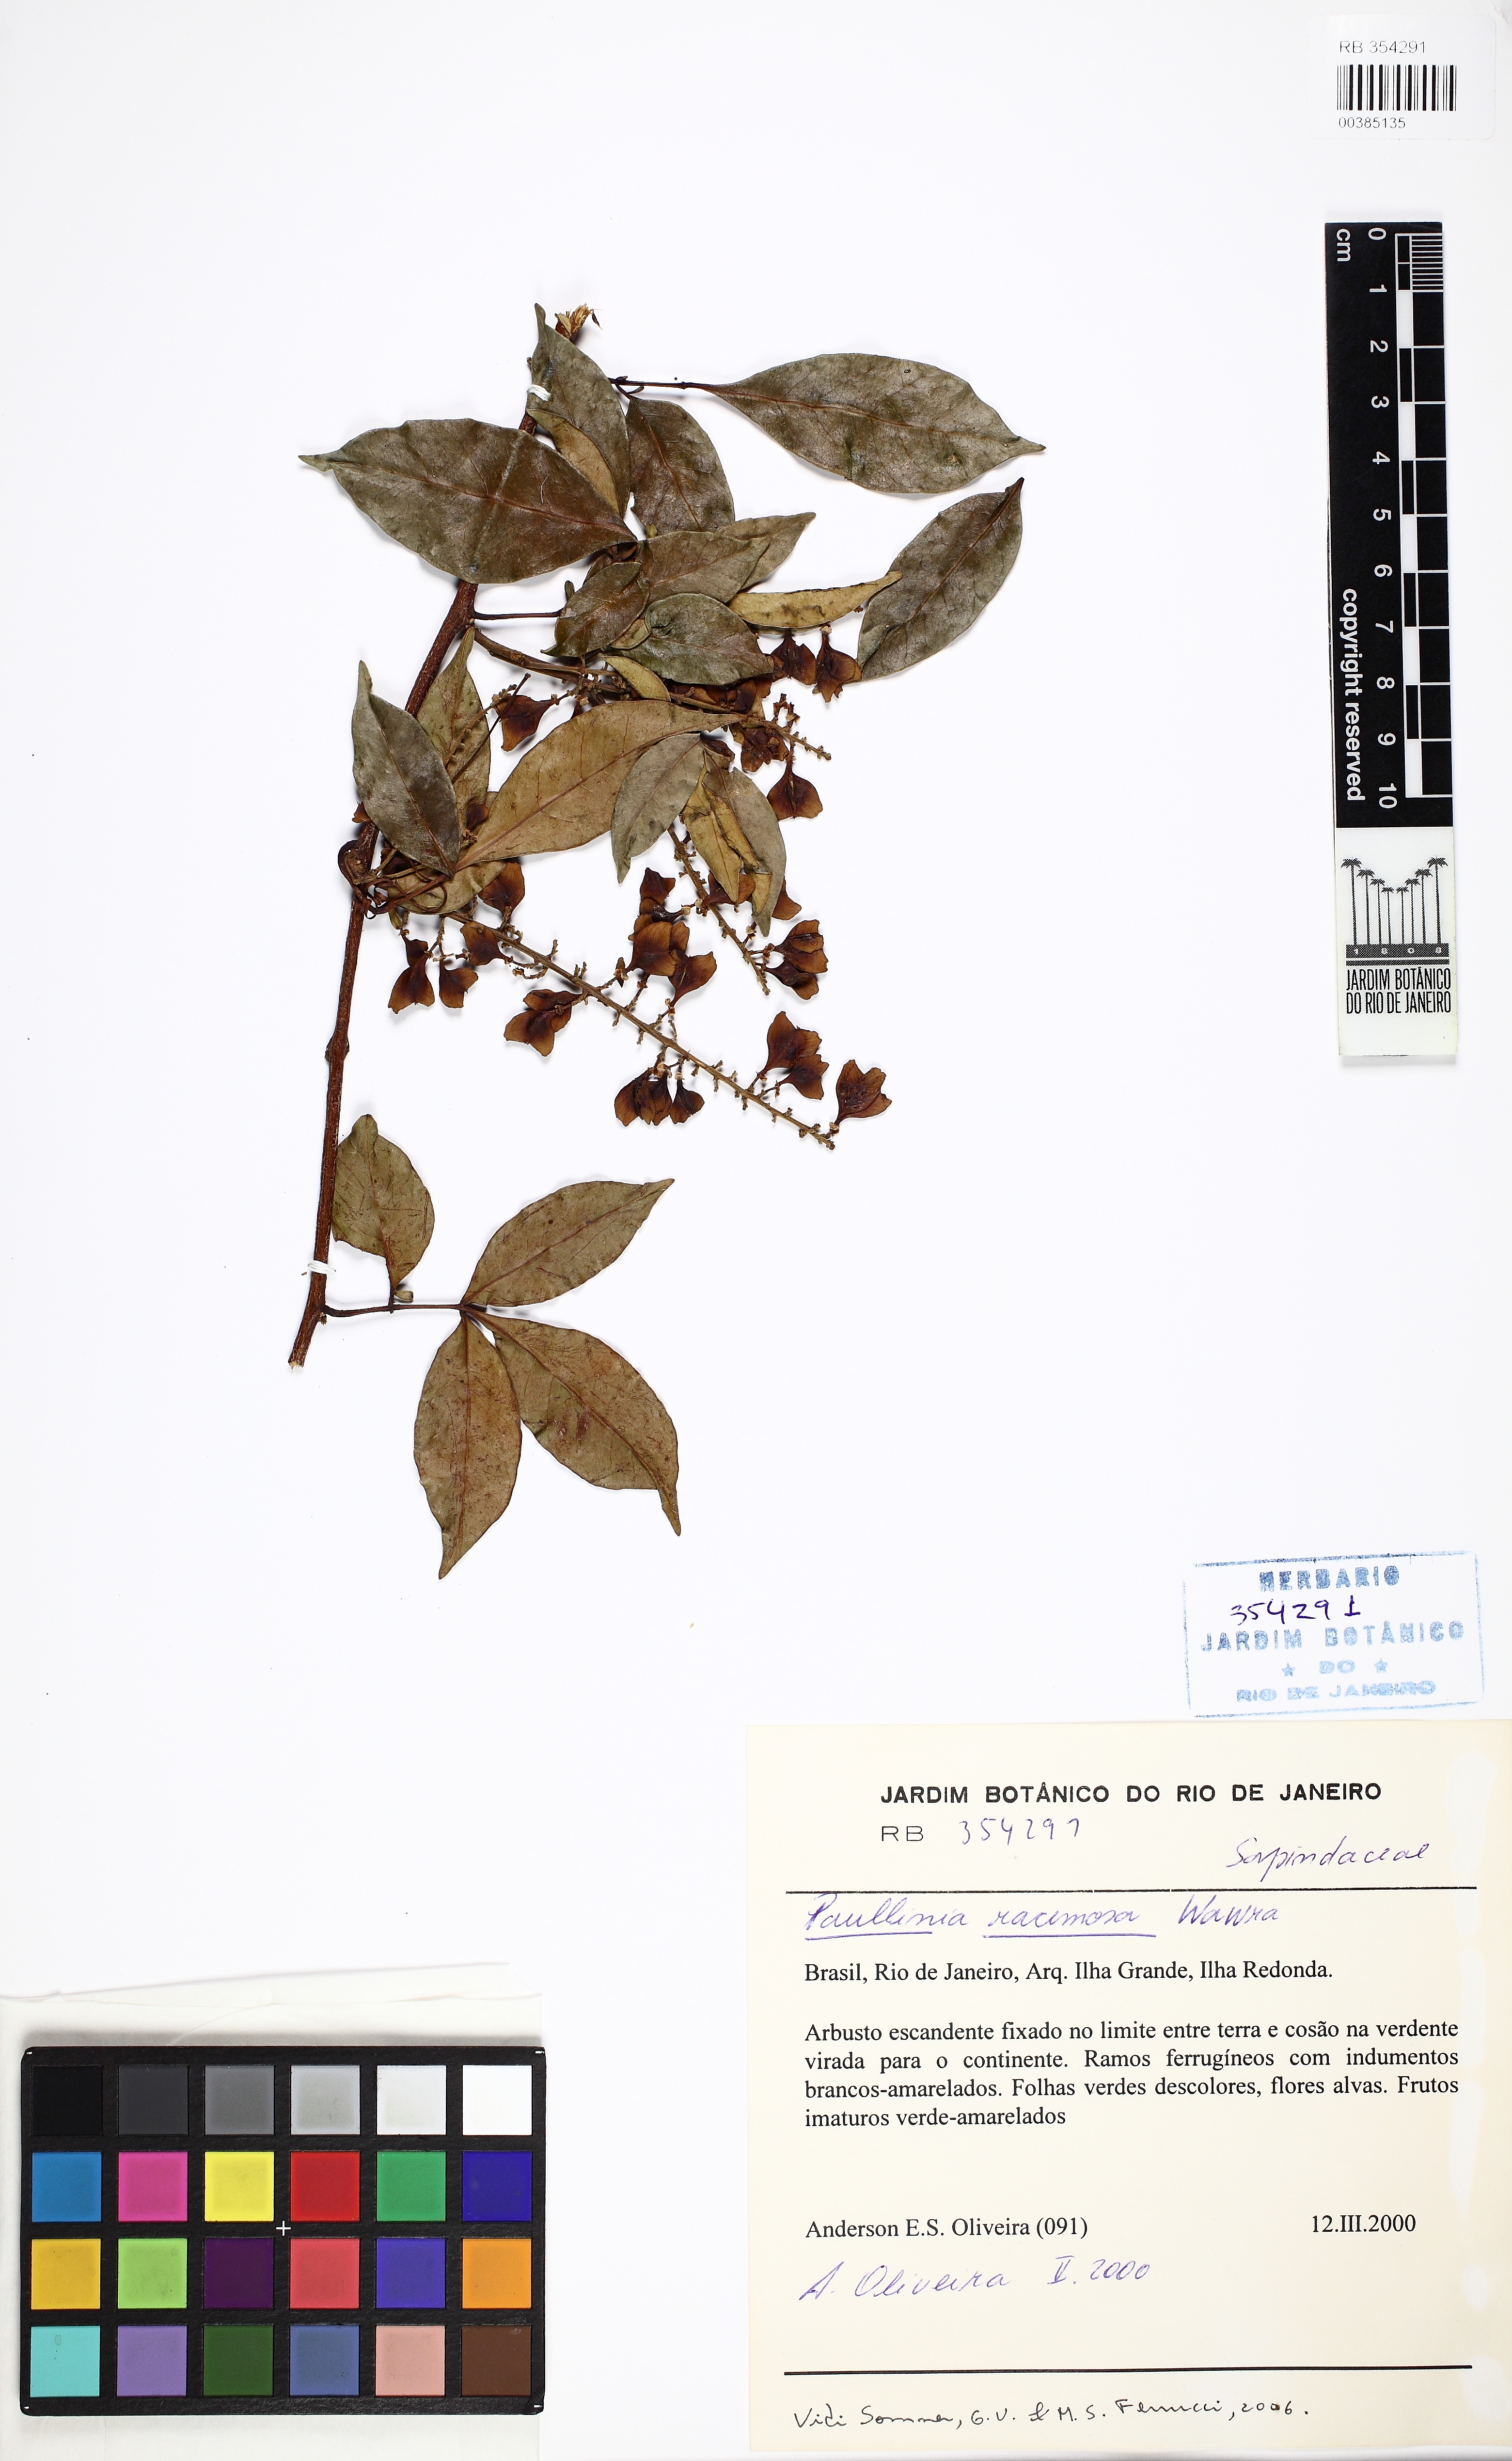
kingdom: Plantae
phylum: Tracheophyta
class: Magnoliopsida
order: Sapindales
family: Sapindaceae
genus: Paullinia
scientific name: Paullinia racemosa
